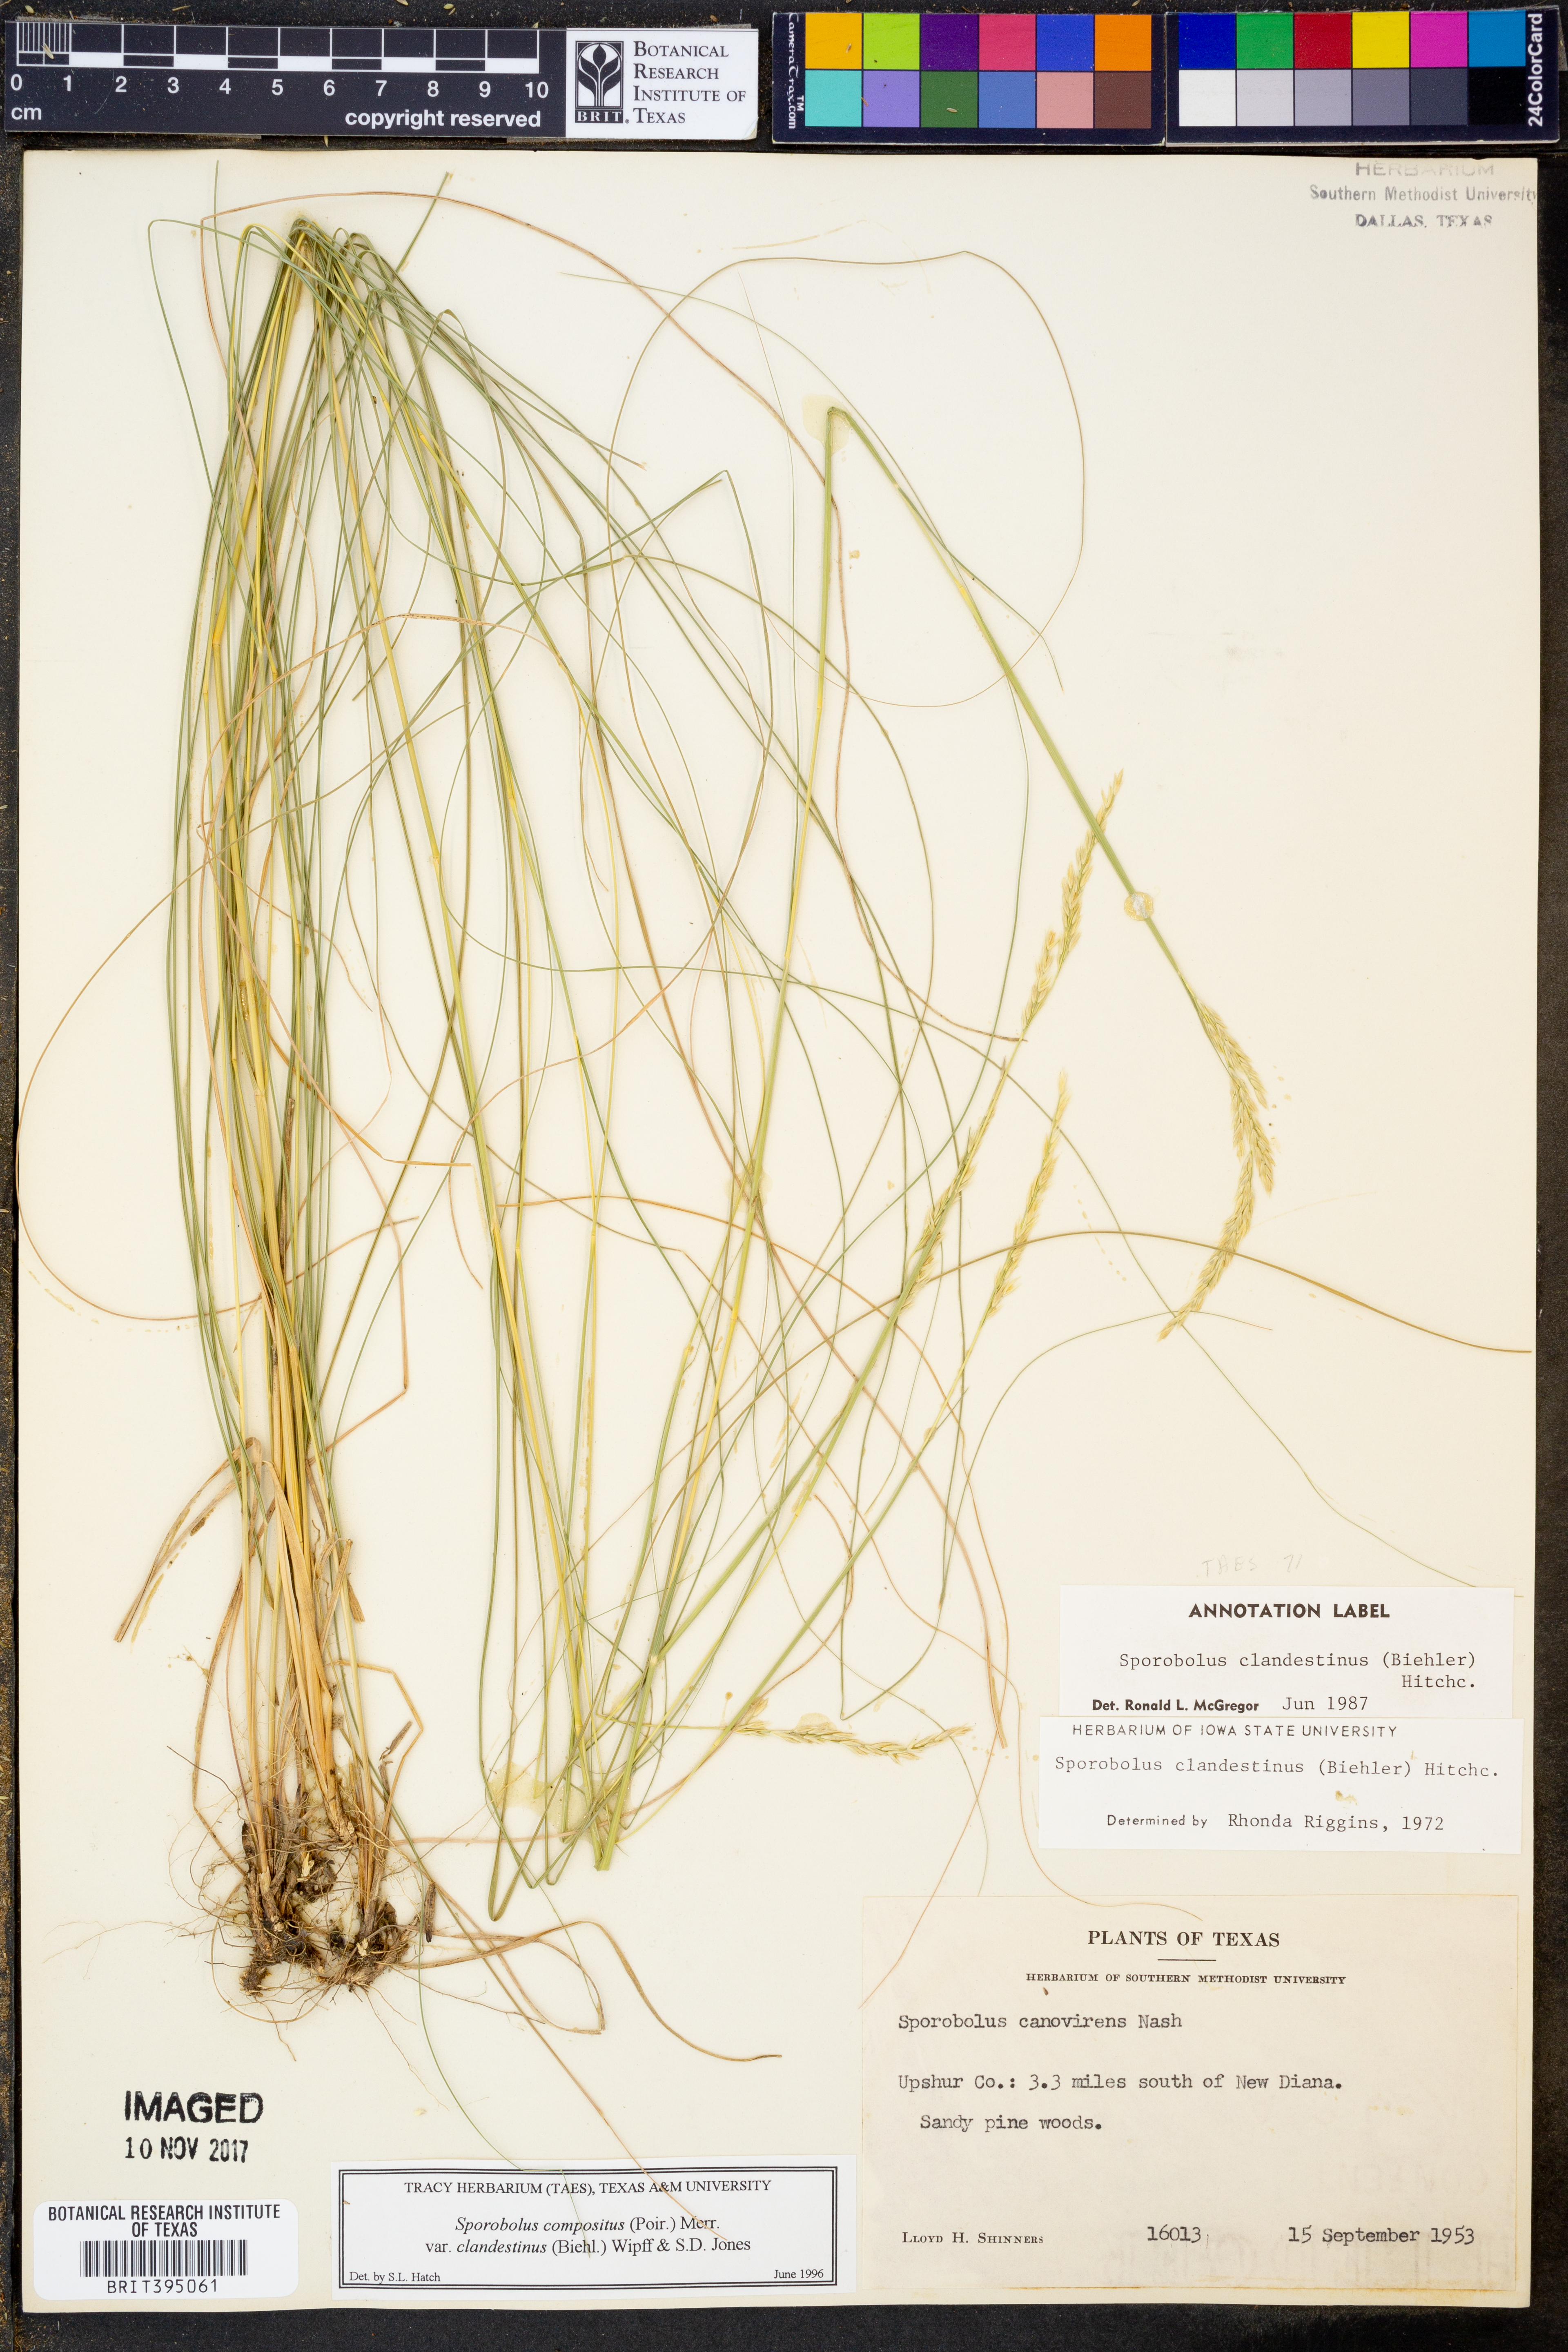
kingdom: Plantae
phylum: Tracheophyta
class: Liliopsida
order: Poales
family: Poaceae
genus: Sporobolus
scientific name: Sporobolus clandestinus
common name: Hidden dropseed
